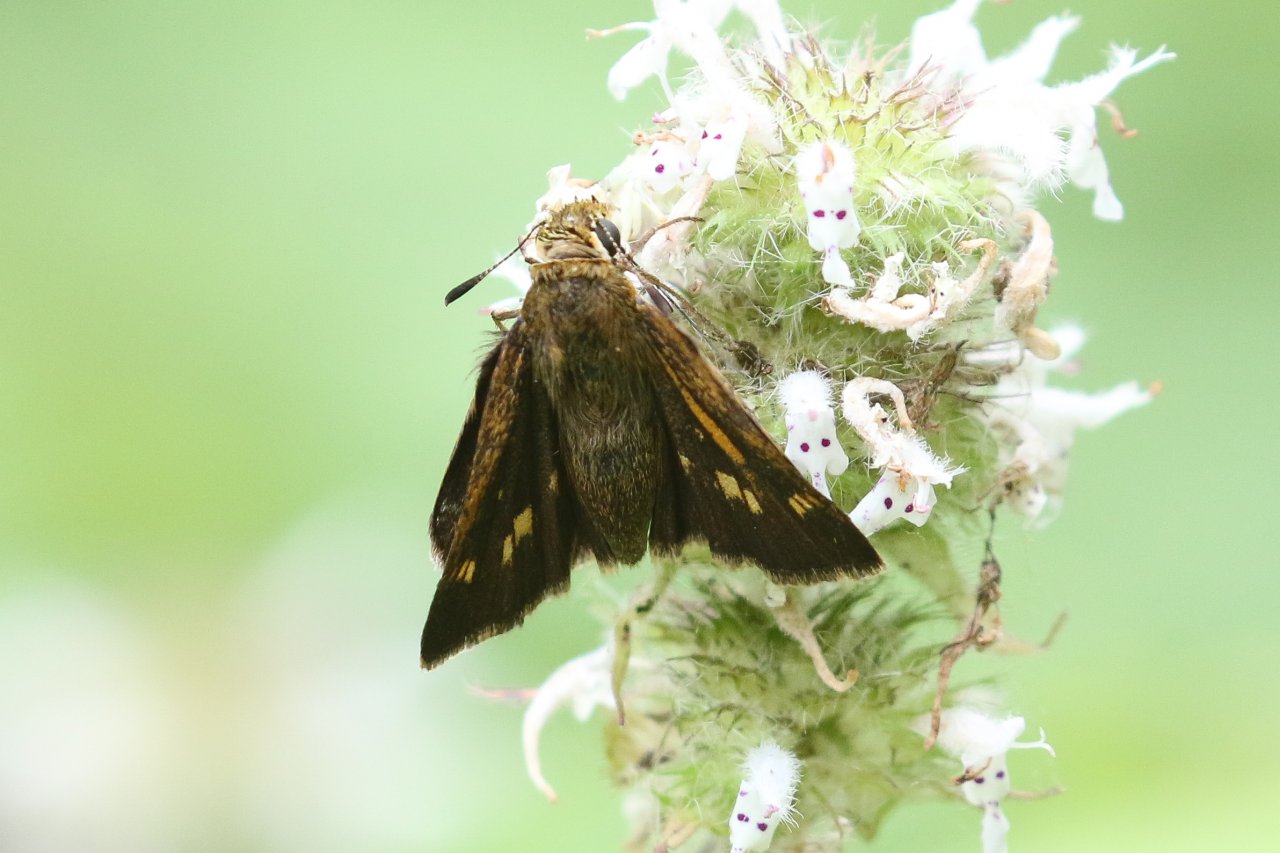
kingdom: Animalia
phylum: Arthropoda
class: Insecta
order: Lepidoptera
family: Hesperiidae
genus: Polites
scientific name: Polites egeremet
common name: Northern Broken-Dash
